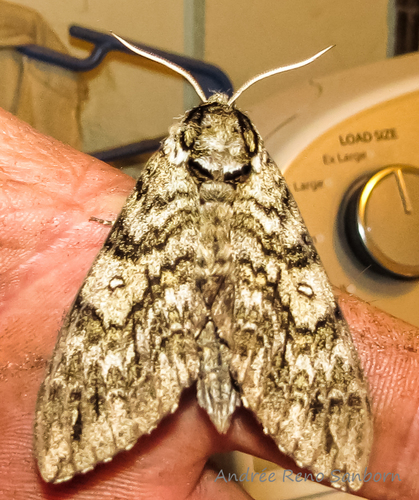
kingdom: Animalia
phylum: Arthropoda
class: Insecta
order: Lepidoptera
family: Sphingidae
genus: Ceratomia
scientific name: Ceratomia undulosa
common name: Waved sphinx
